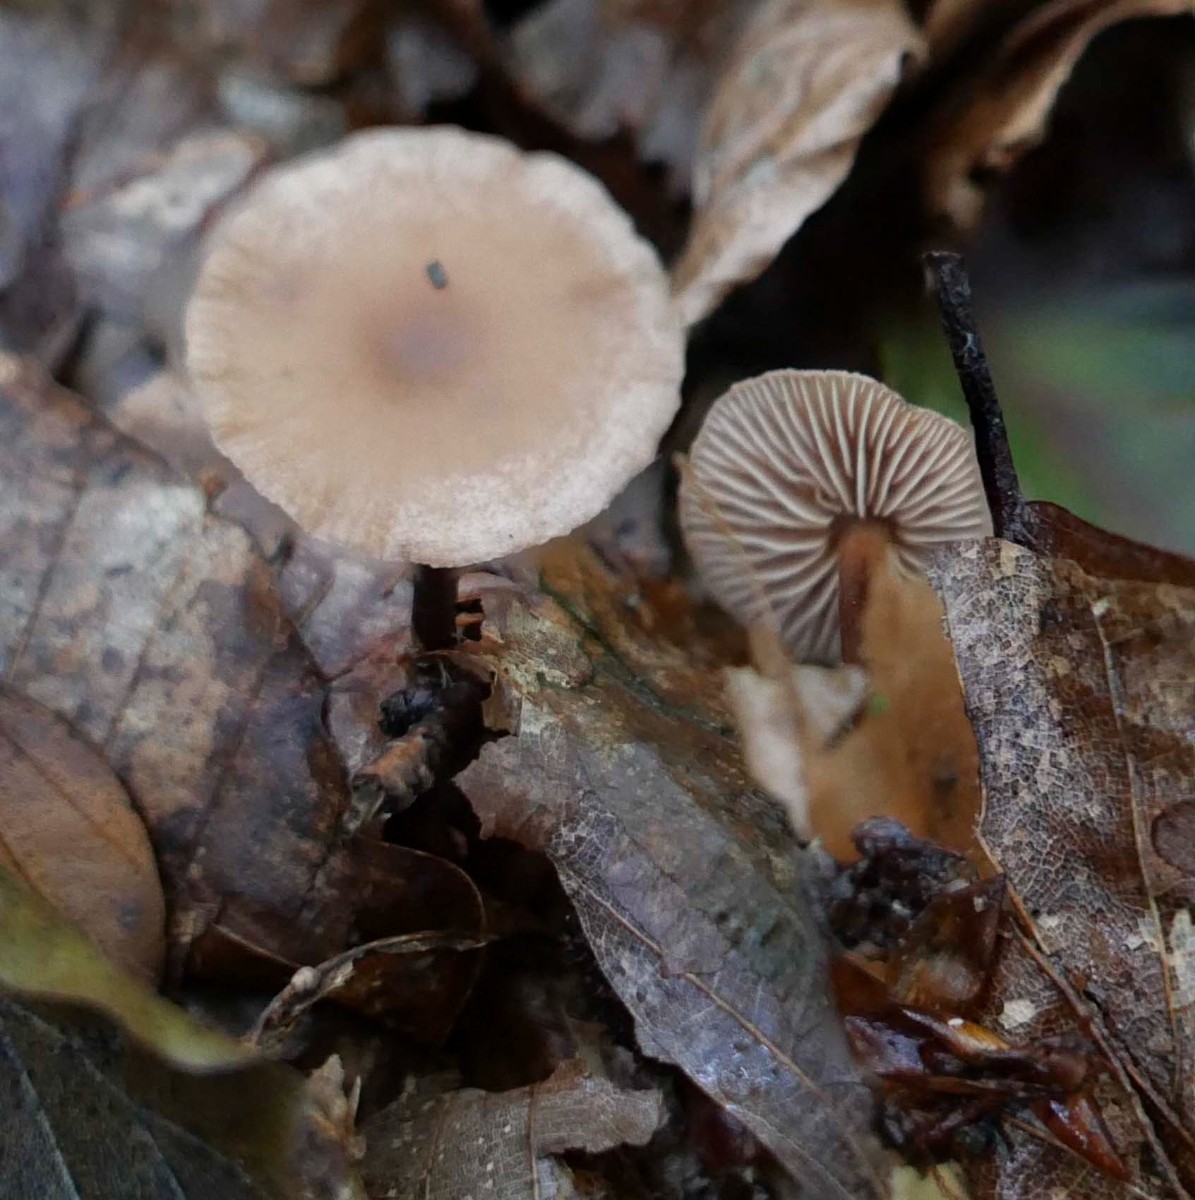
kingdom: Fungi
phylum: Basidiomycota
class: Agaricomycetes
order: Agaricales
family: Omphalotaceae
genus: Gymnopus
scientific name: Gymnopus fagiphilus
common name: bøgeløv-fladhat
